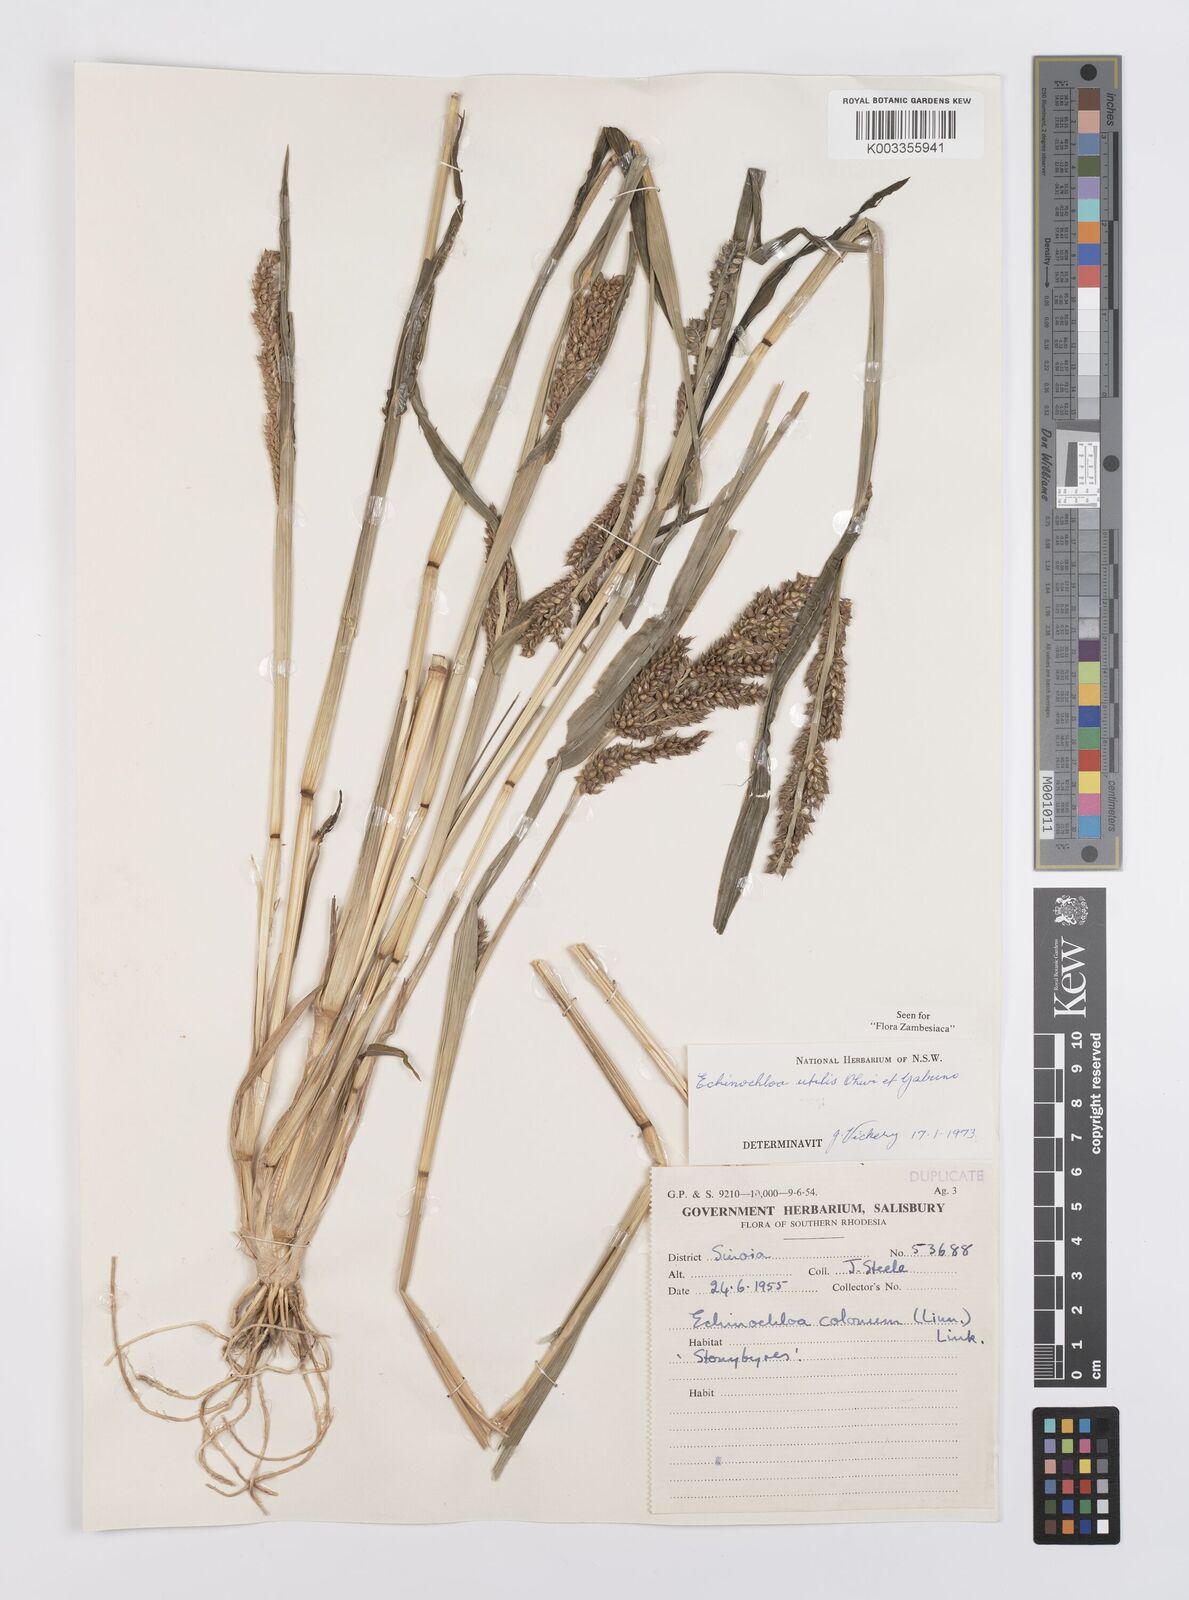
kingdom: Plantae
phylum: Tracheophyta
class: Liliopsida
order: Poales
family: Poaceae
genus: Echinochloa
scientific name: Echinochloa crus-galli
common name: Cockspur
